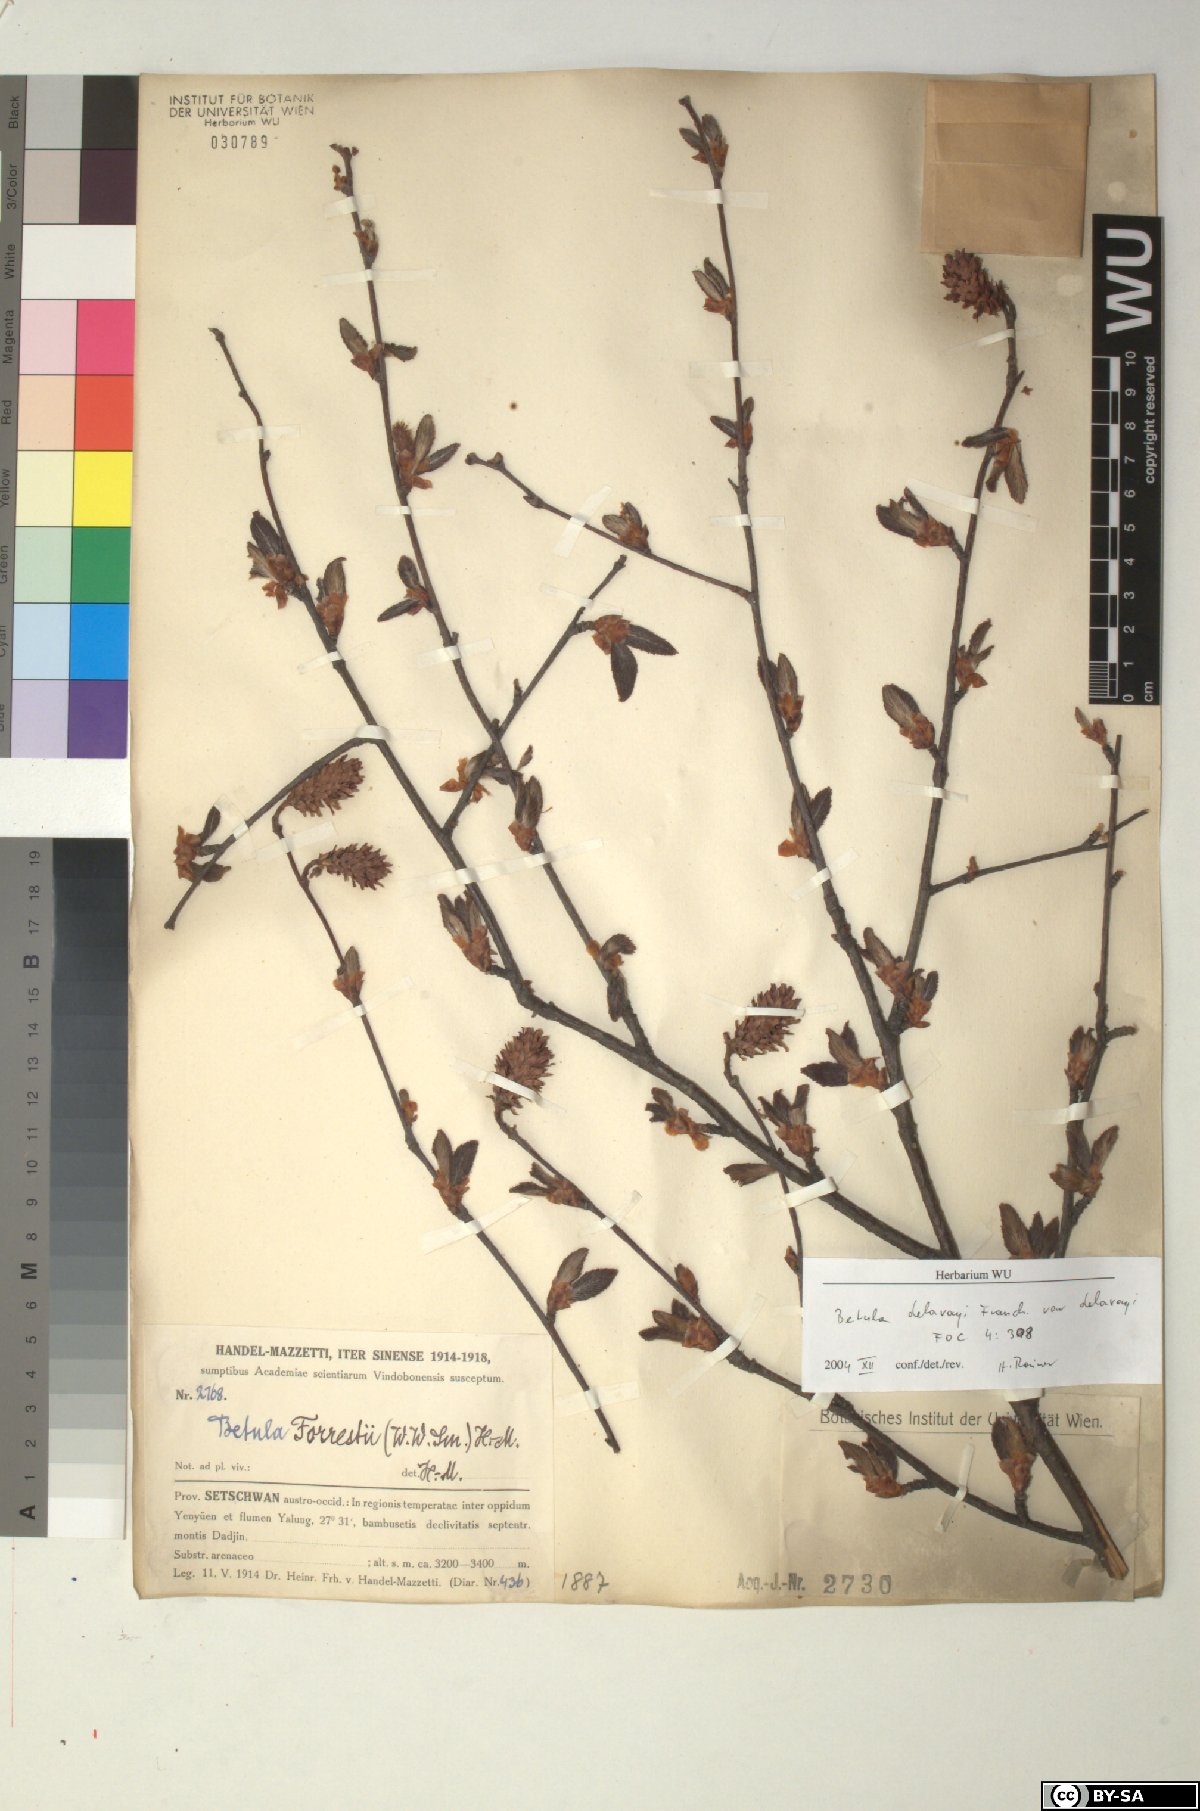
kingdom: Plantae
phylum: Tracheophyta
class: Magnoliopsida
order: Fagales
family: Betulaceae
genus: Betula
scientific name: Betula delavayi
